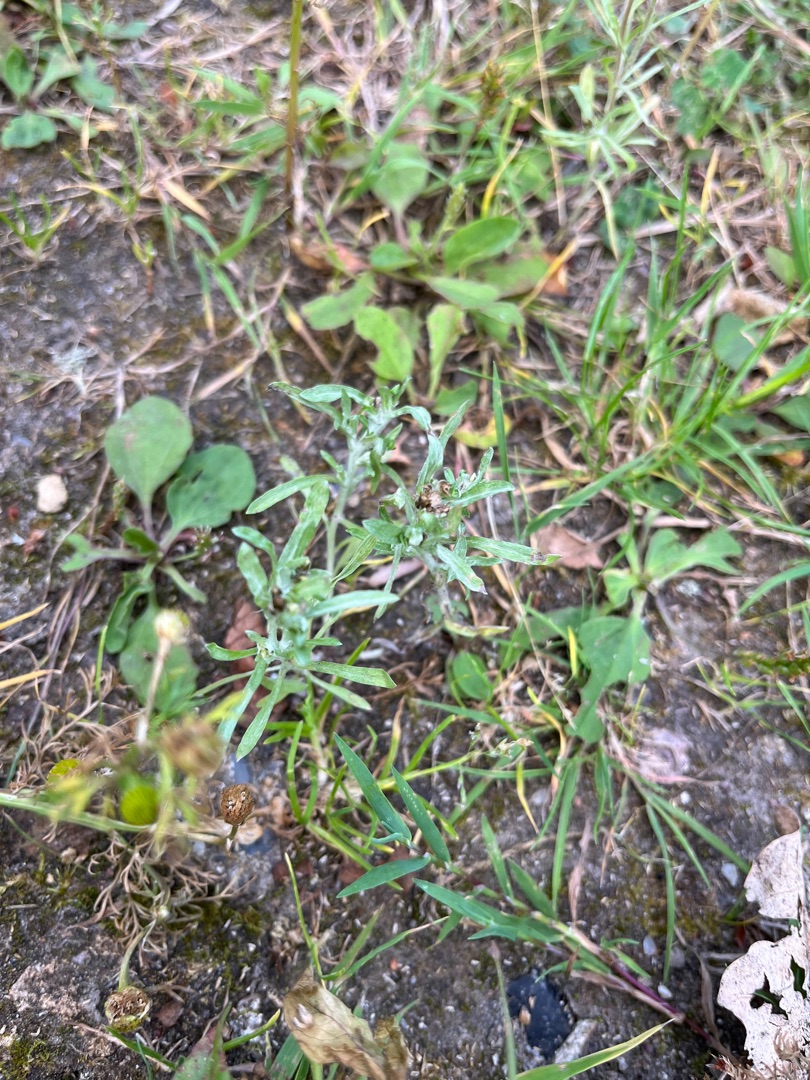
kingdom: Plantae
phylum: Tracheophyta
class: Magnoliopsida
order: Asterales
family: Asteraceae
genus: Gnaphalium
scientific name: Gnaphalium uliginosum
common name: Sump-evighedsblomst
